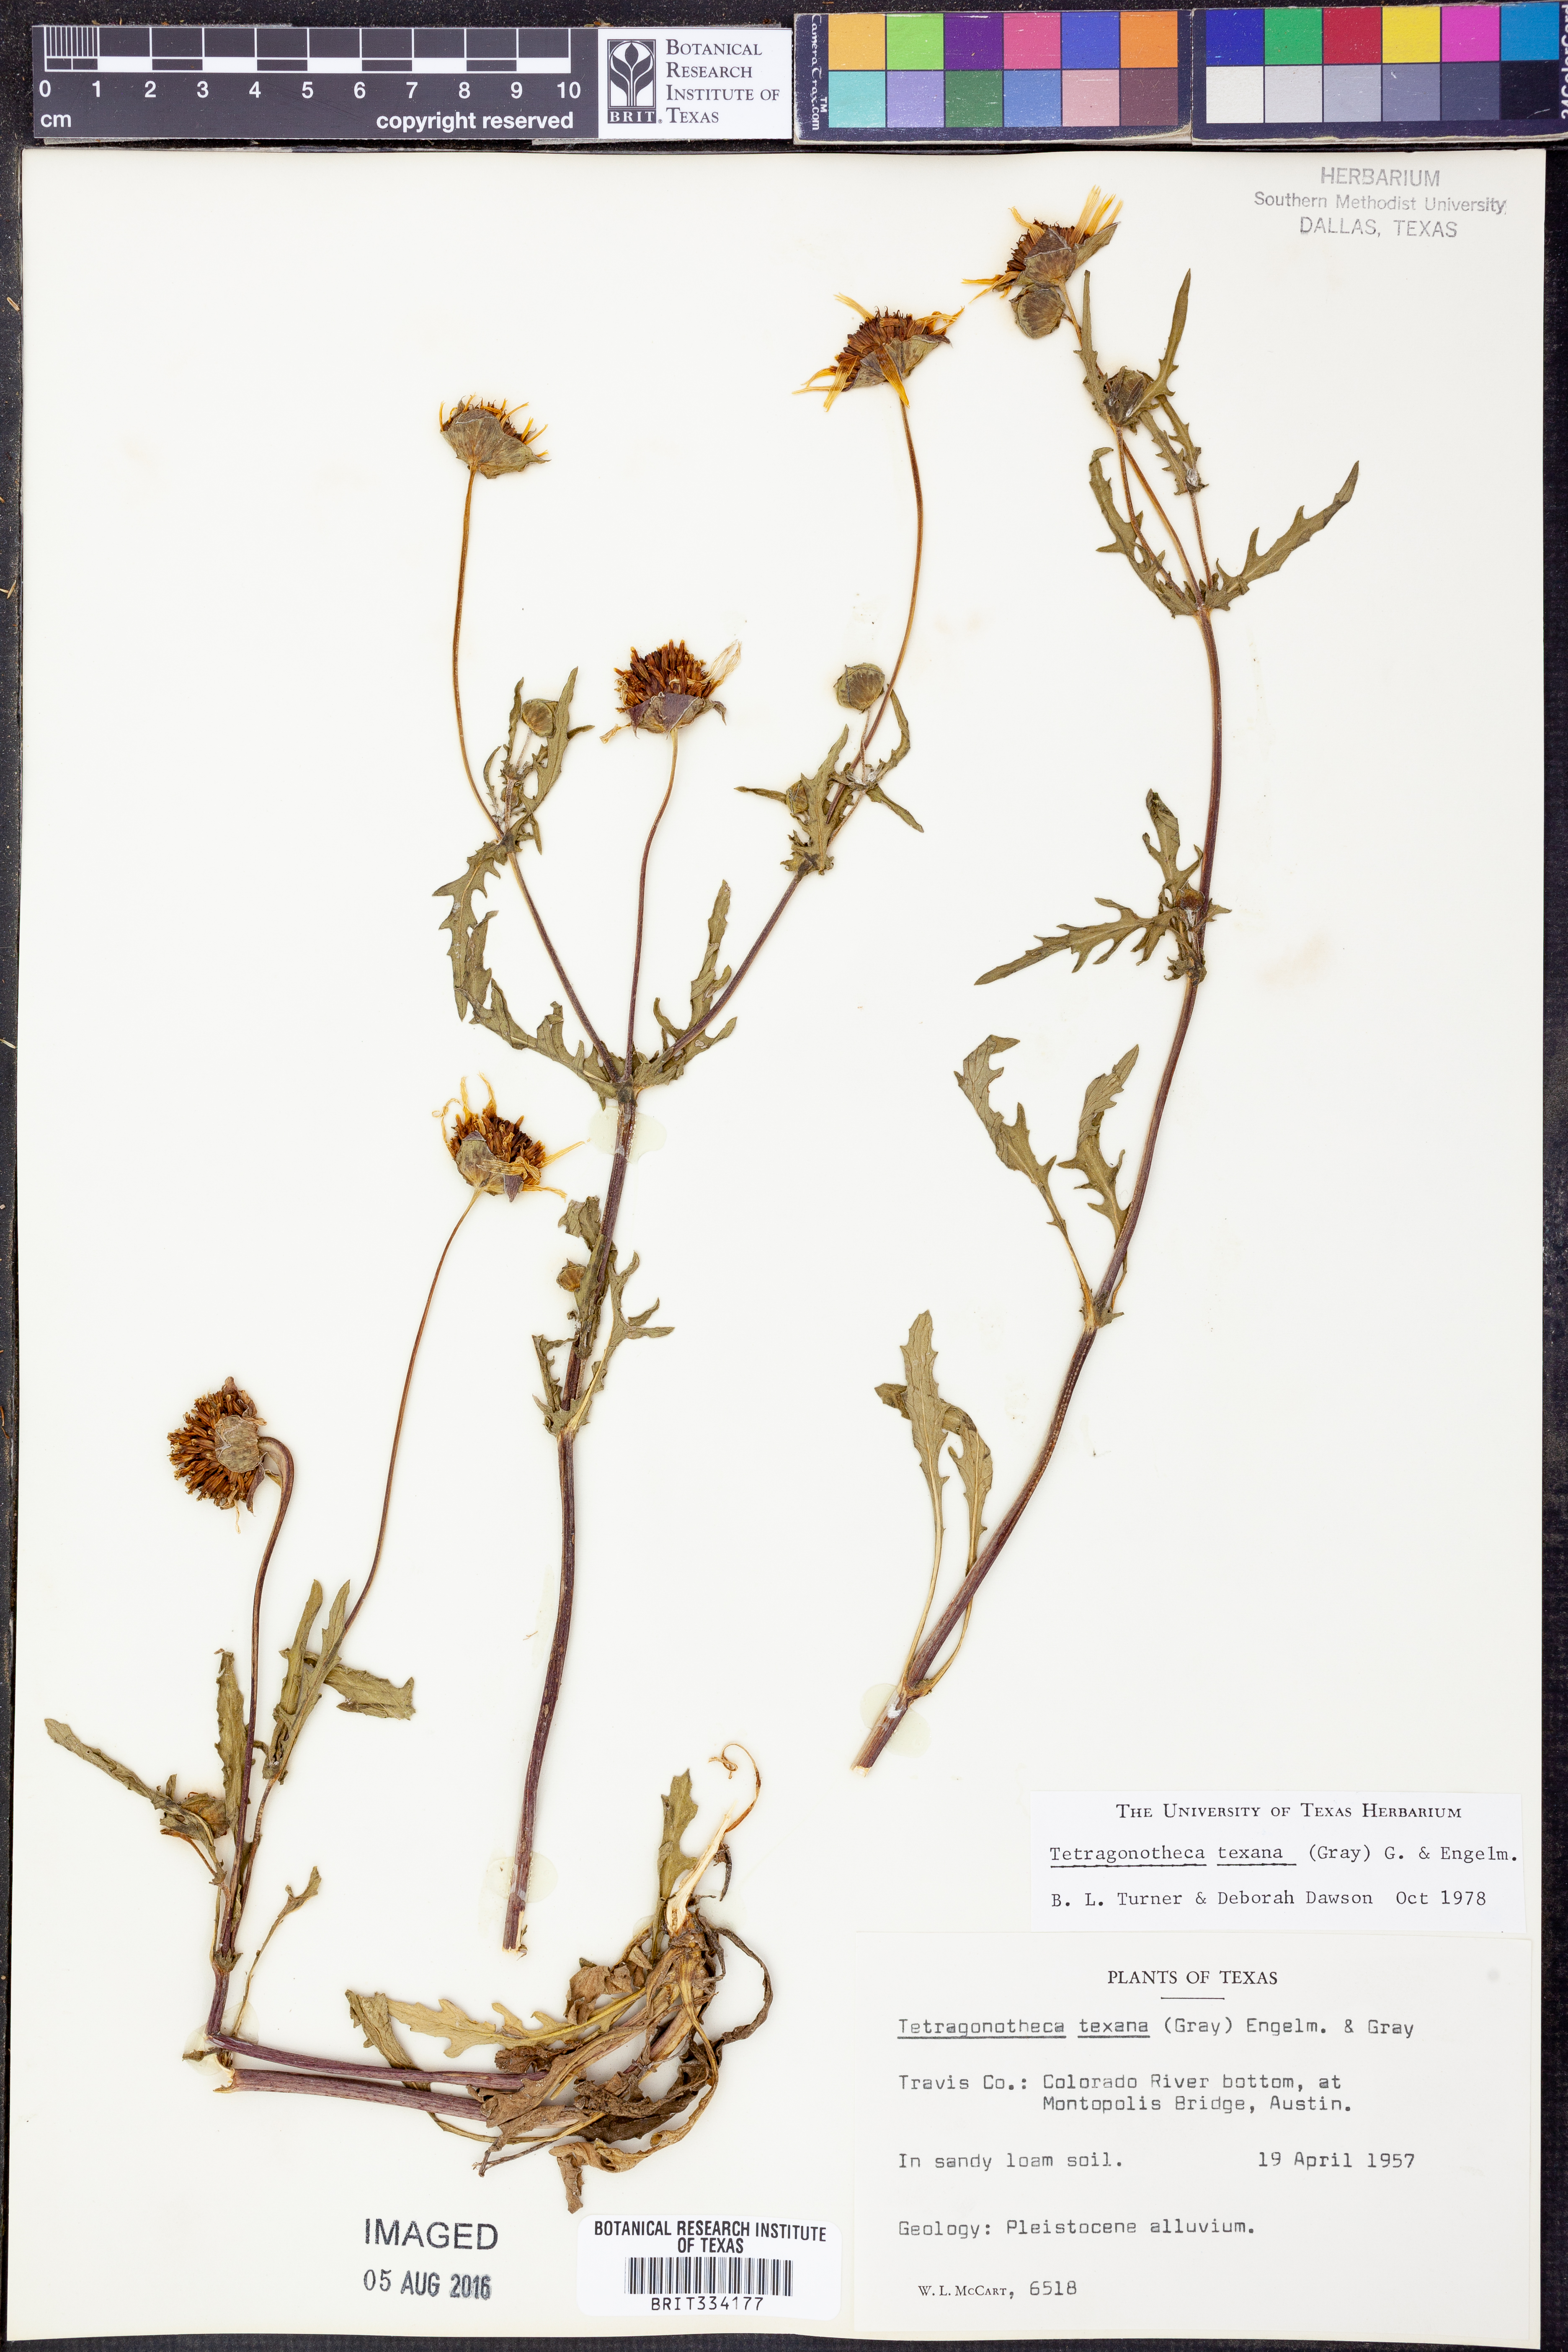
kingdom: Plantae
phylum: Tracheophyta
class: Magnoliopsida
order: Asterales
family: Asteraceae
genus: Tetragonotheca
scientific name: Tetragonotheca texana
